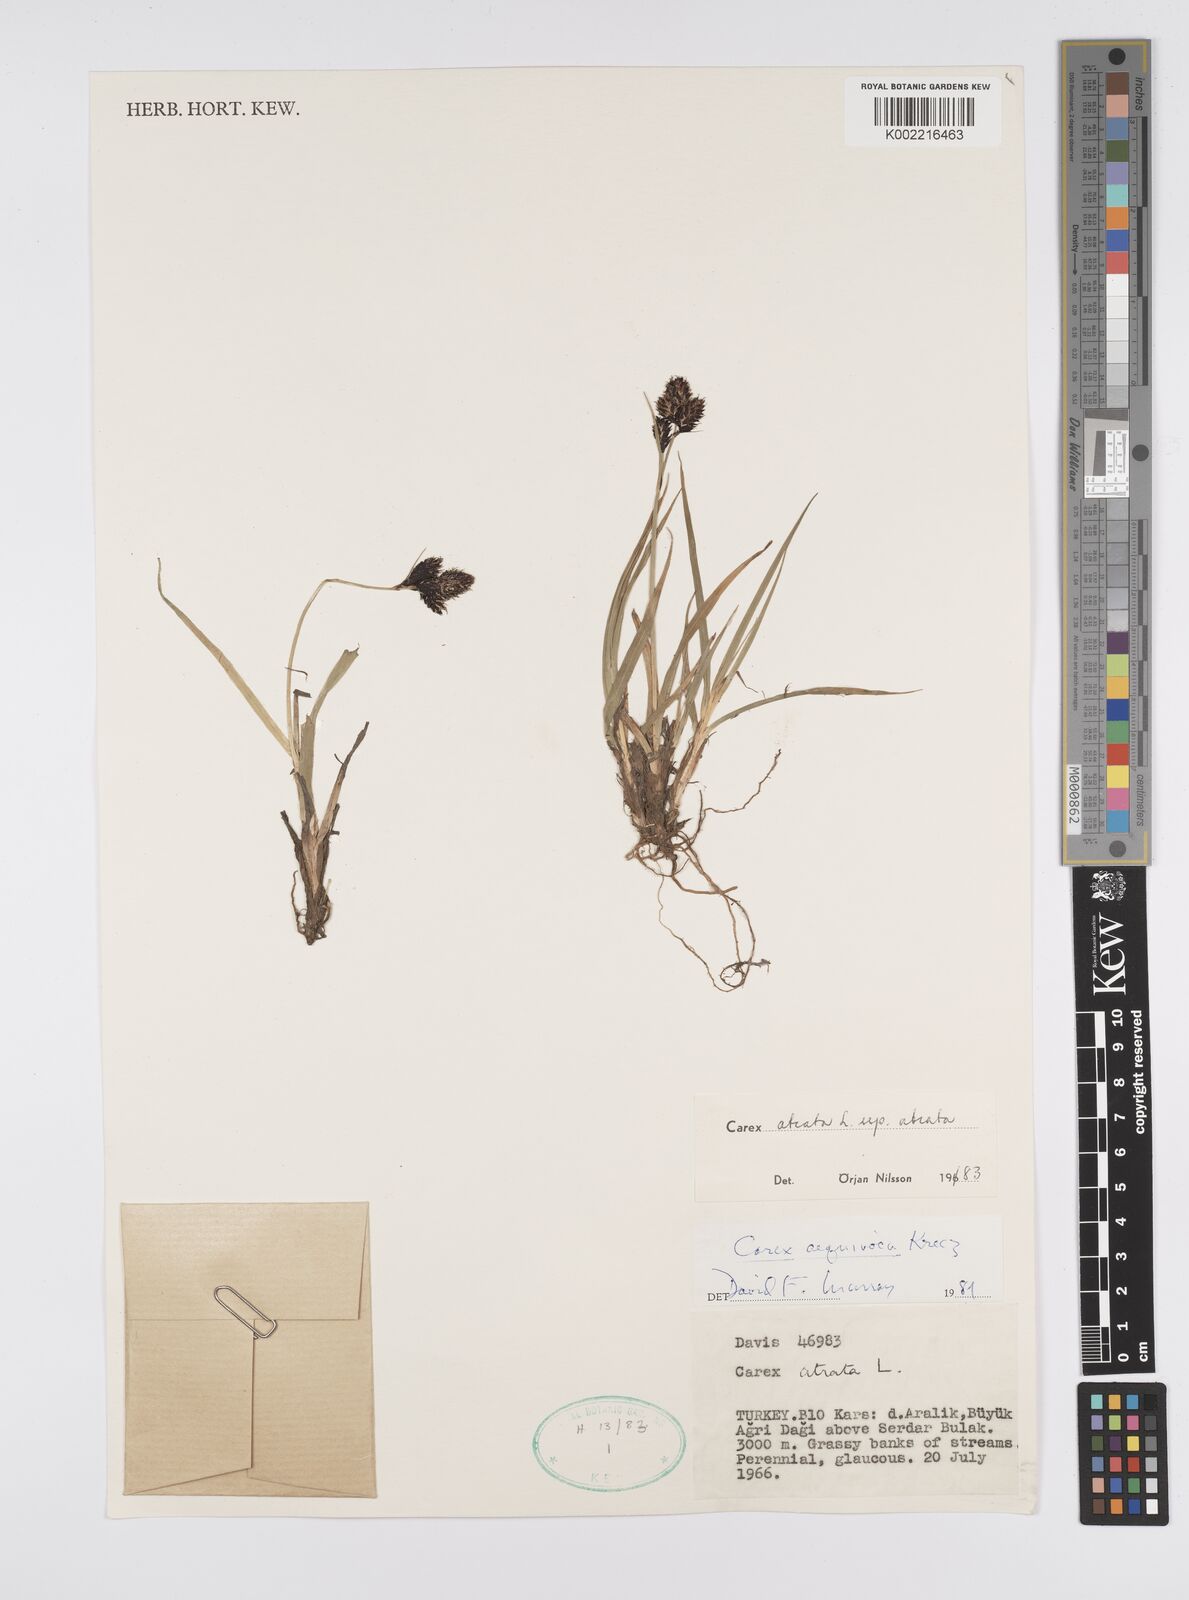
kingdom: Plantae
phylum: Tracheophyta
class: Liliopsida
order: Poales
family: Cyperaceae
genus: Carex
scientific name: Carex atrata
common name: Black alpine sedge
